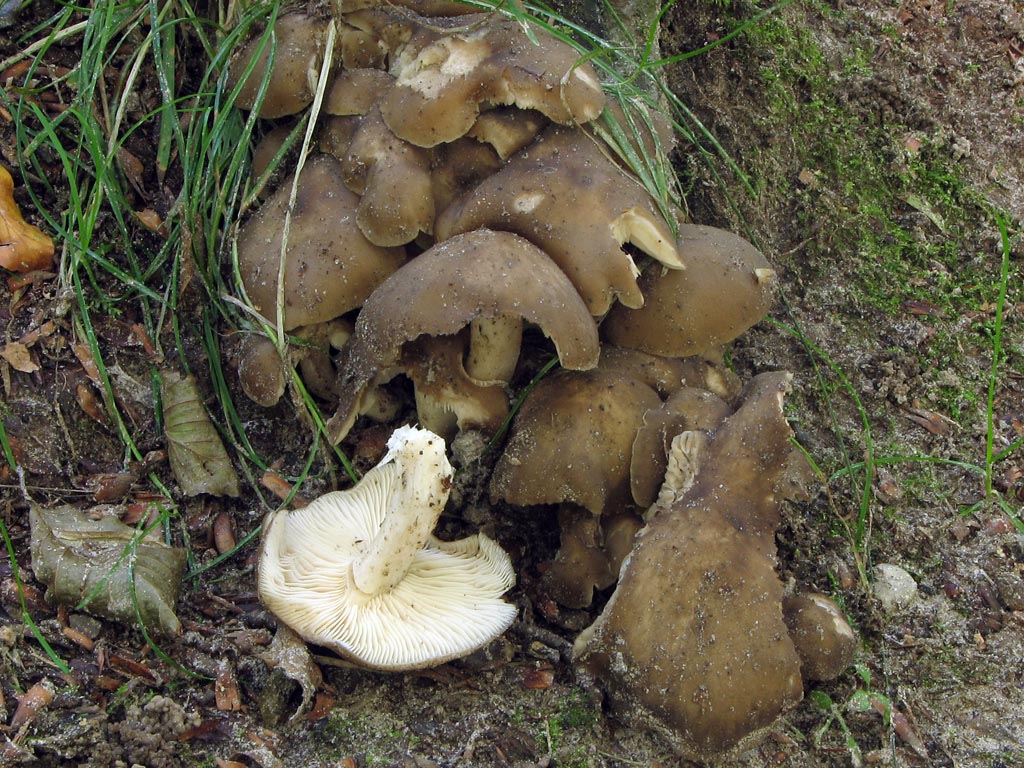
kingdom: Fungi
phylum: Basidiomycota
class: Agaricomycetes
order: Agaricales
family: Lyophyllaceae
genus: Lyophyllum
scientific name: Lyophyllum decastes
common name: røggrå gråblad
